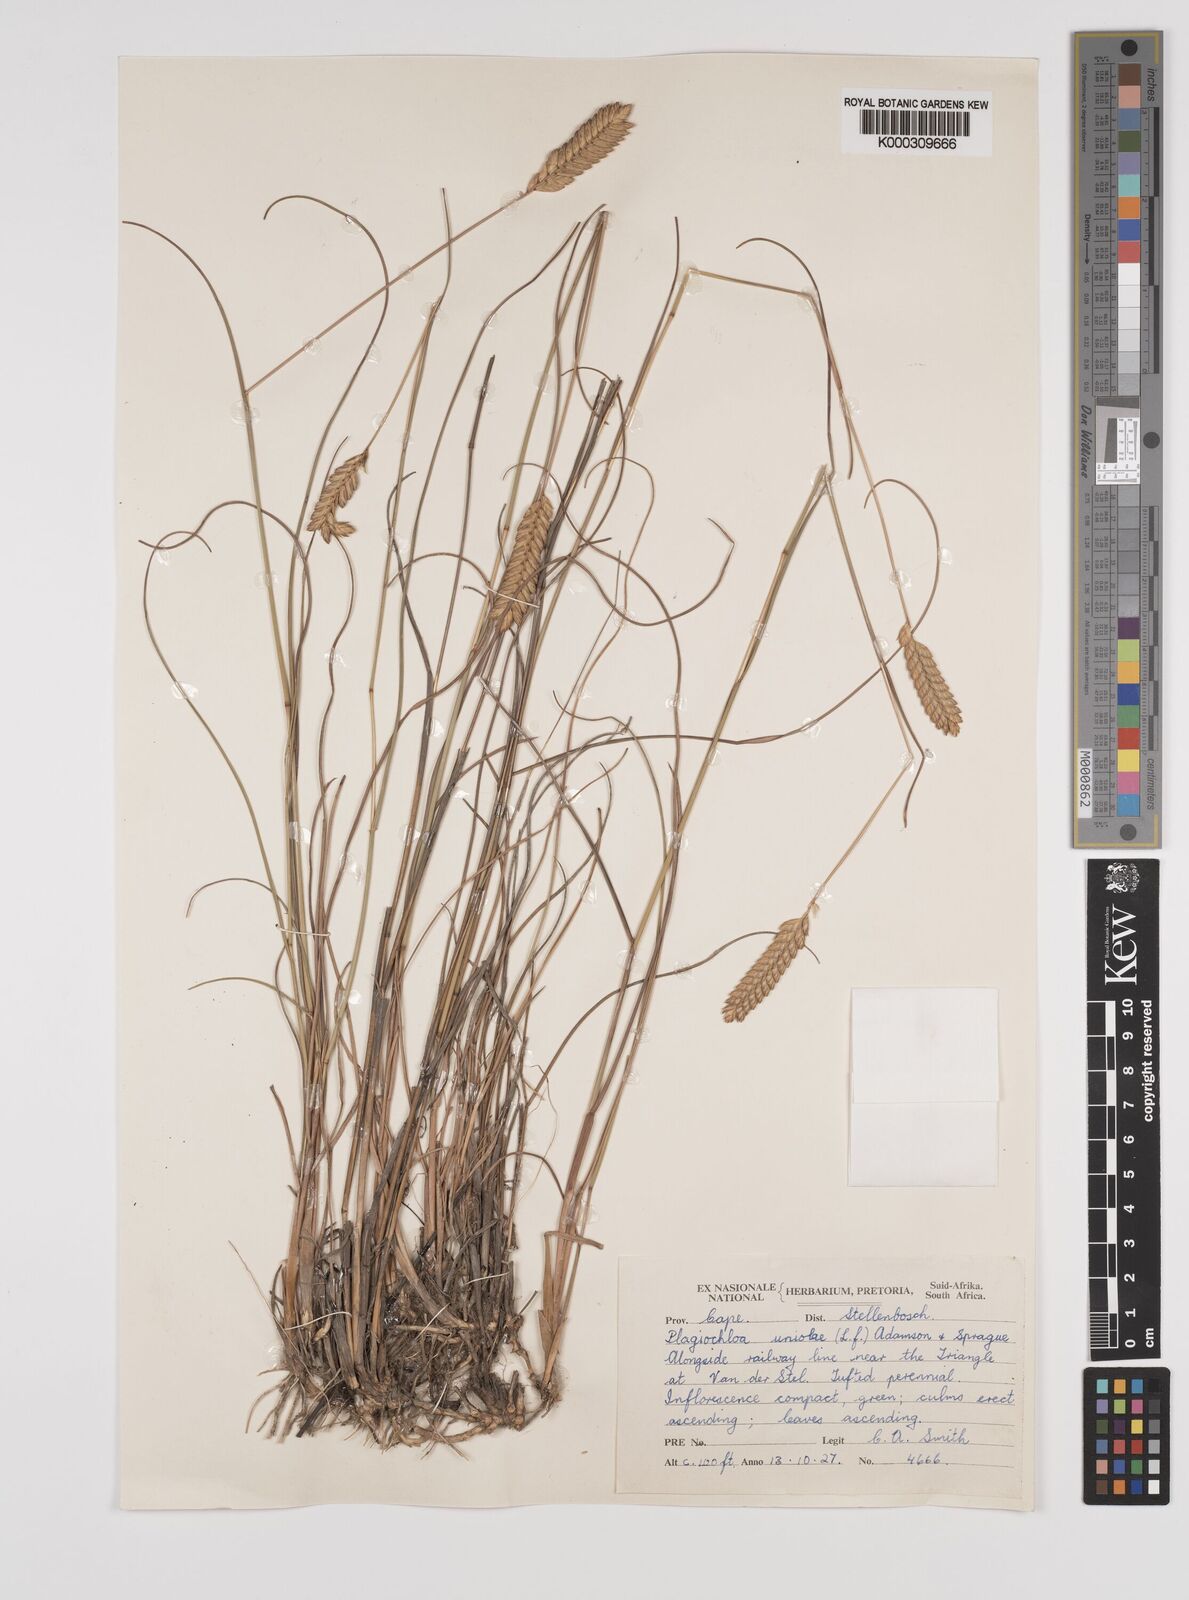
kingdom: Plantae
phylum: Tracheophyta
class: Liliopsida
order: Poales
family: Poaceae
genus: Tribolium
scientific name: Tribolium uniolae
